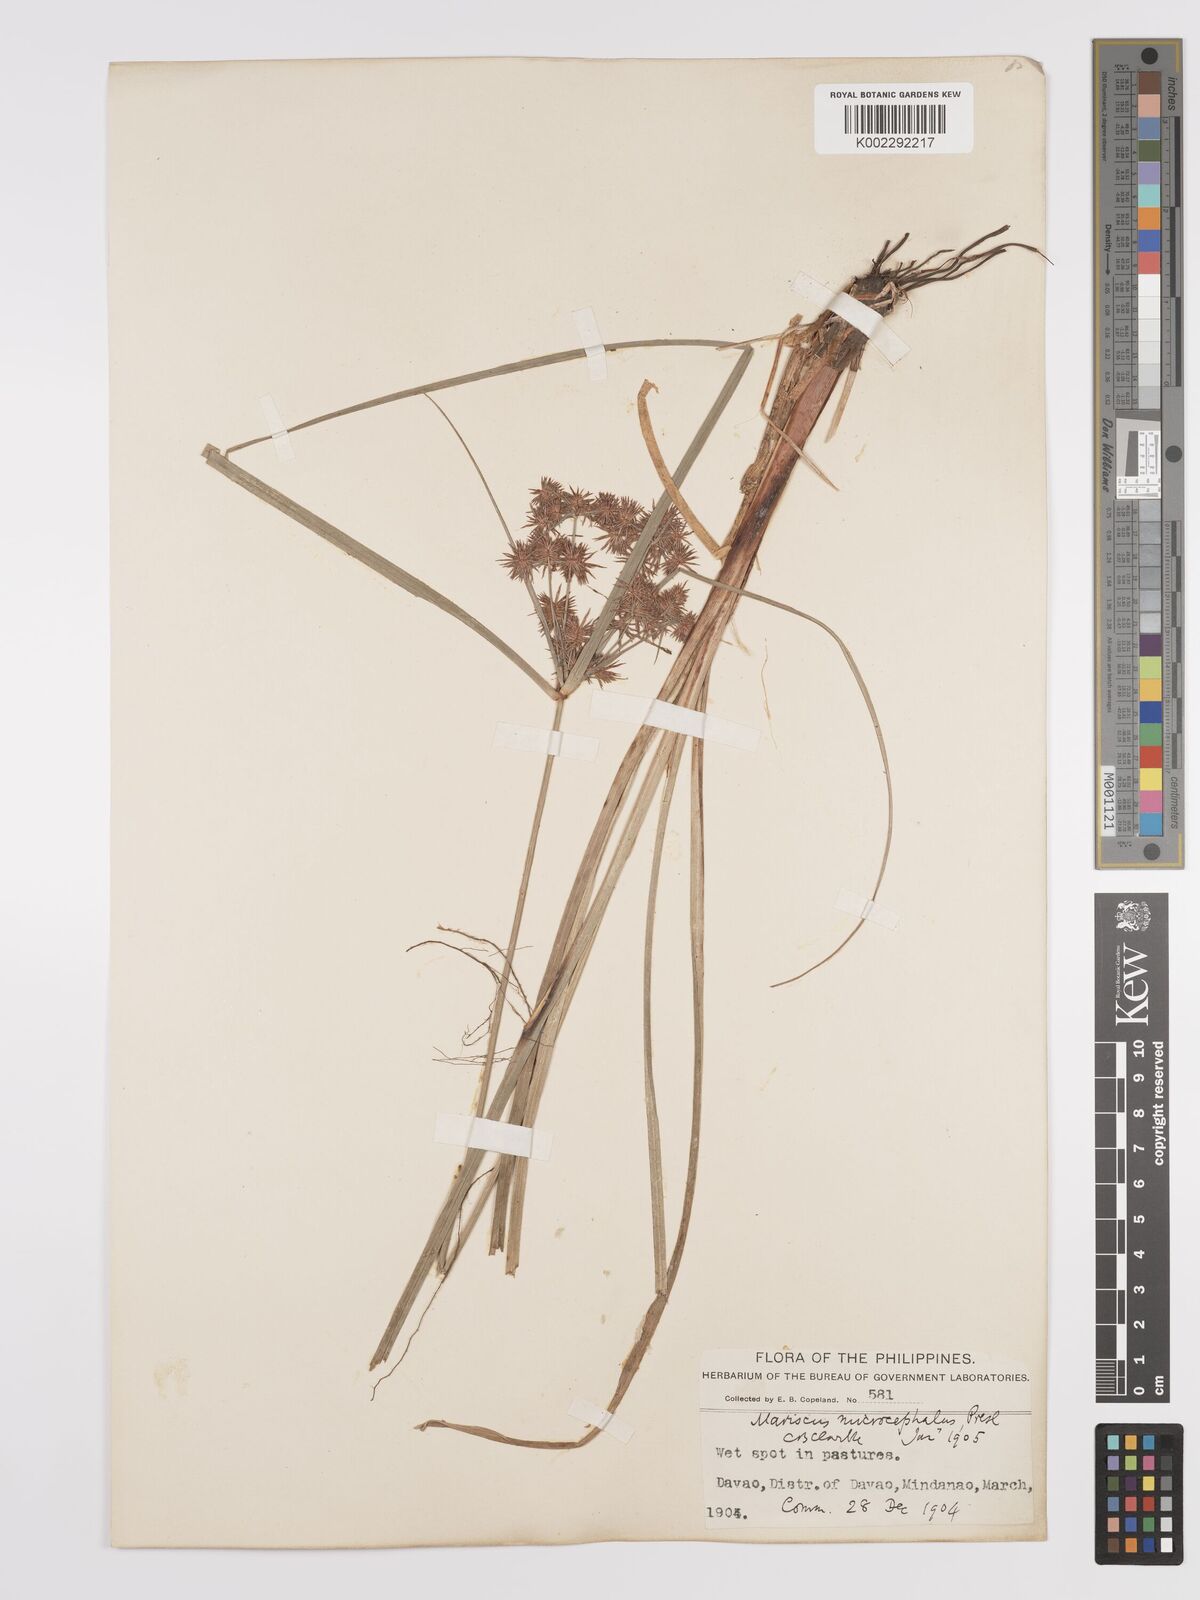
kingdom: Plantae
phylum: Tracheophyta
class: Liliopsida
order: Poales
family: Cyperaceae
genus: Cyperus
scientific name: Cyperus compactus
